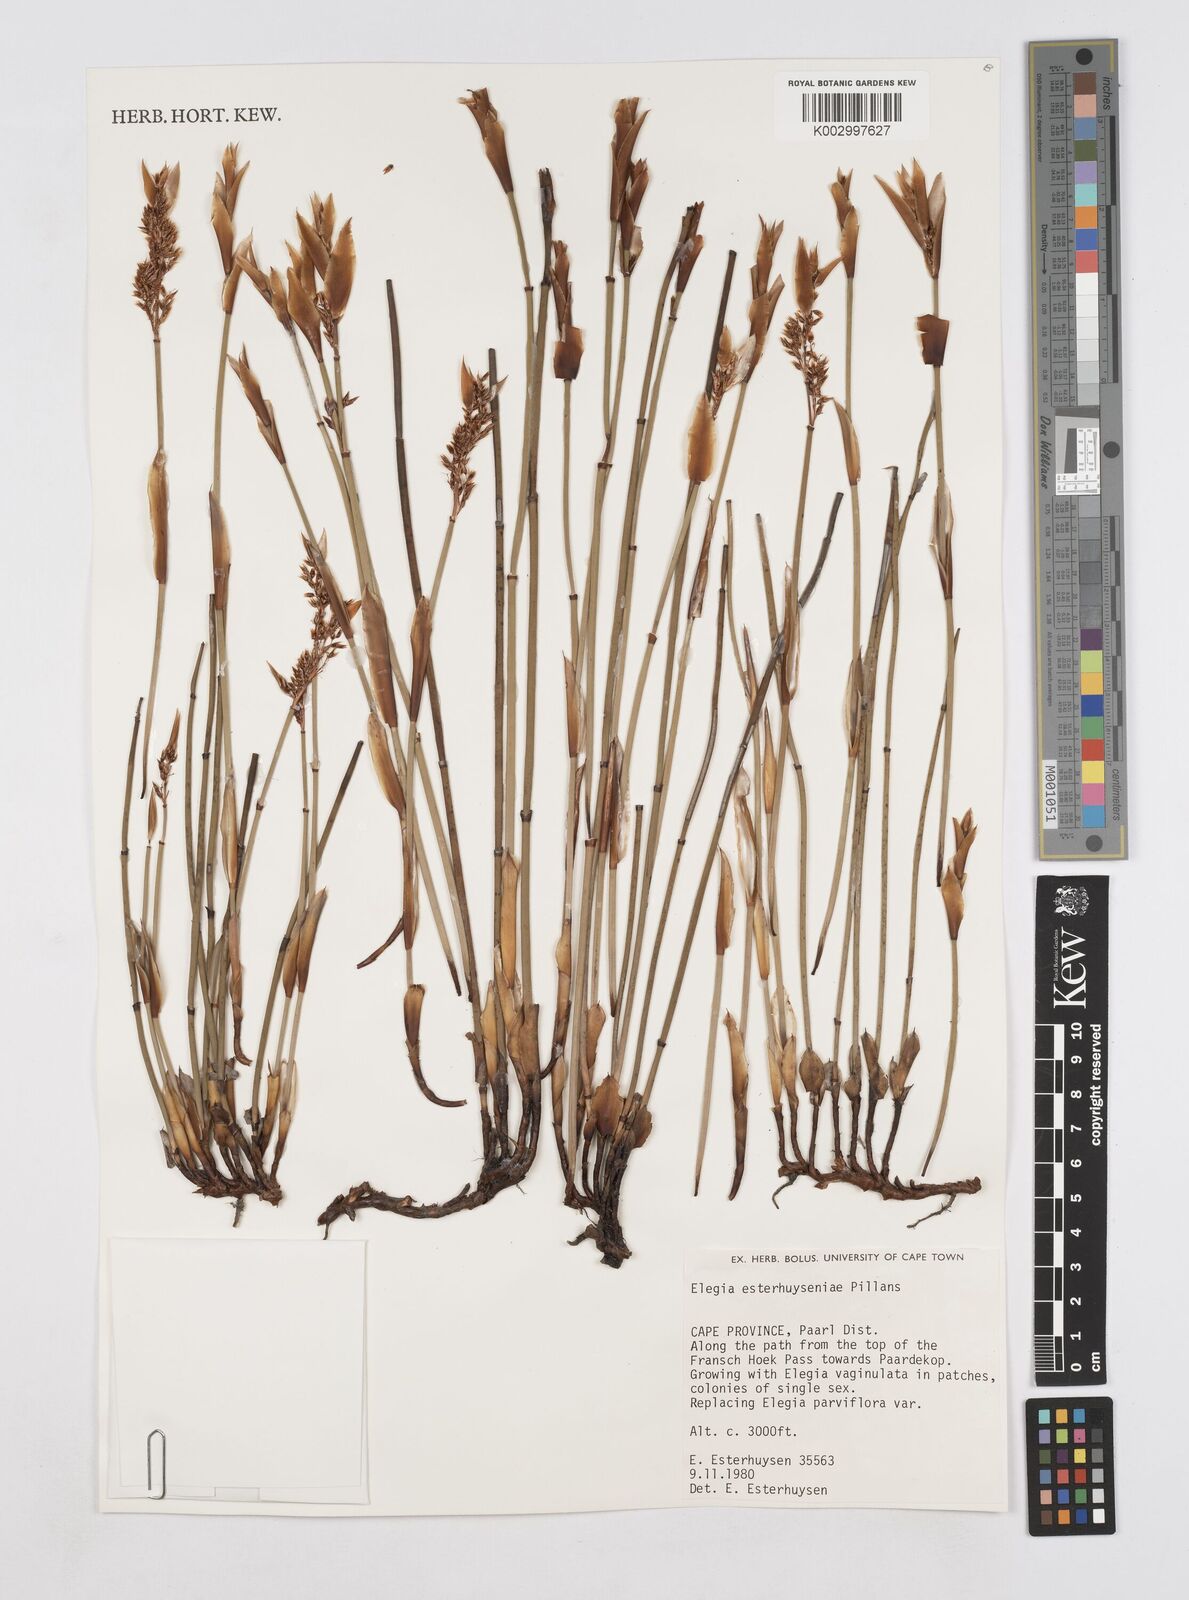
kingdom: Plantae
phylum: Tracheophyta
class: Liliopsida
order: Poales
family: Restionaceae
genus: Elegia
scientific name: Elegia esterhuyseniae
